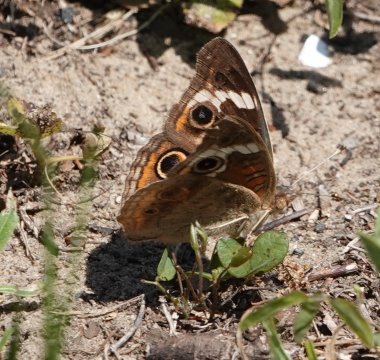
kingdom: Animalia
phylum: Arthropoda
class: Insecta
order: Lepidoptera
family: Nymphalidae
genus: Junonia
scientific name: Junonia coenia
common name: Common Buckeye
